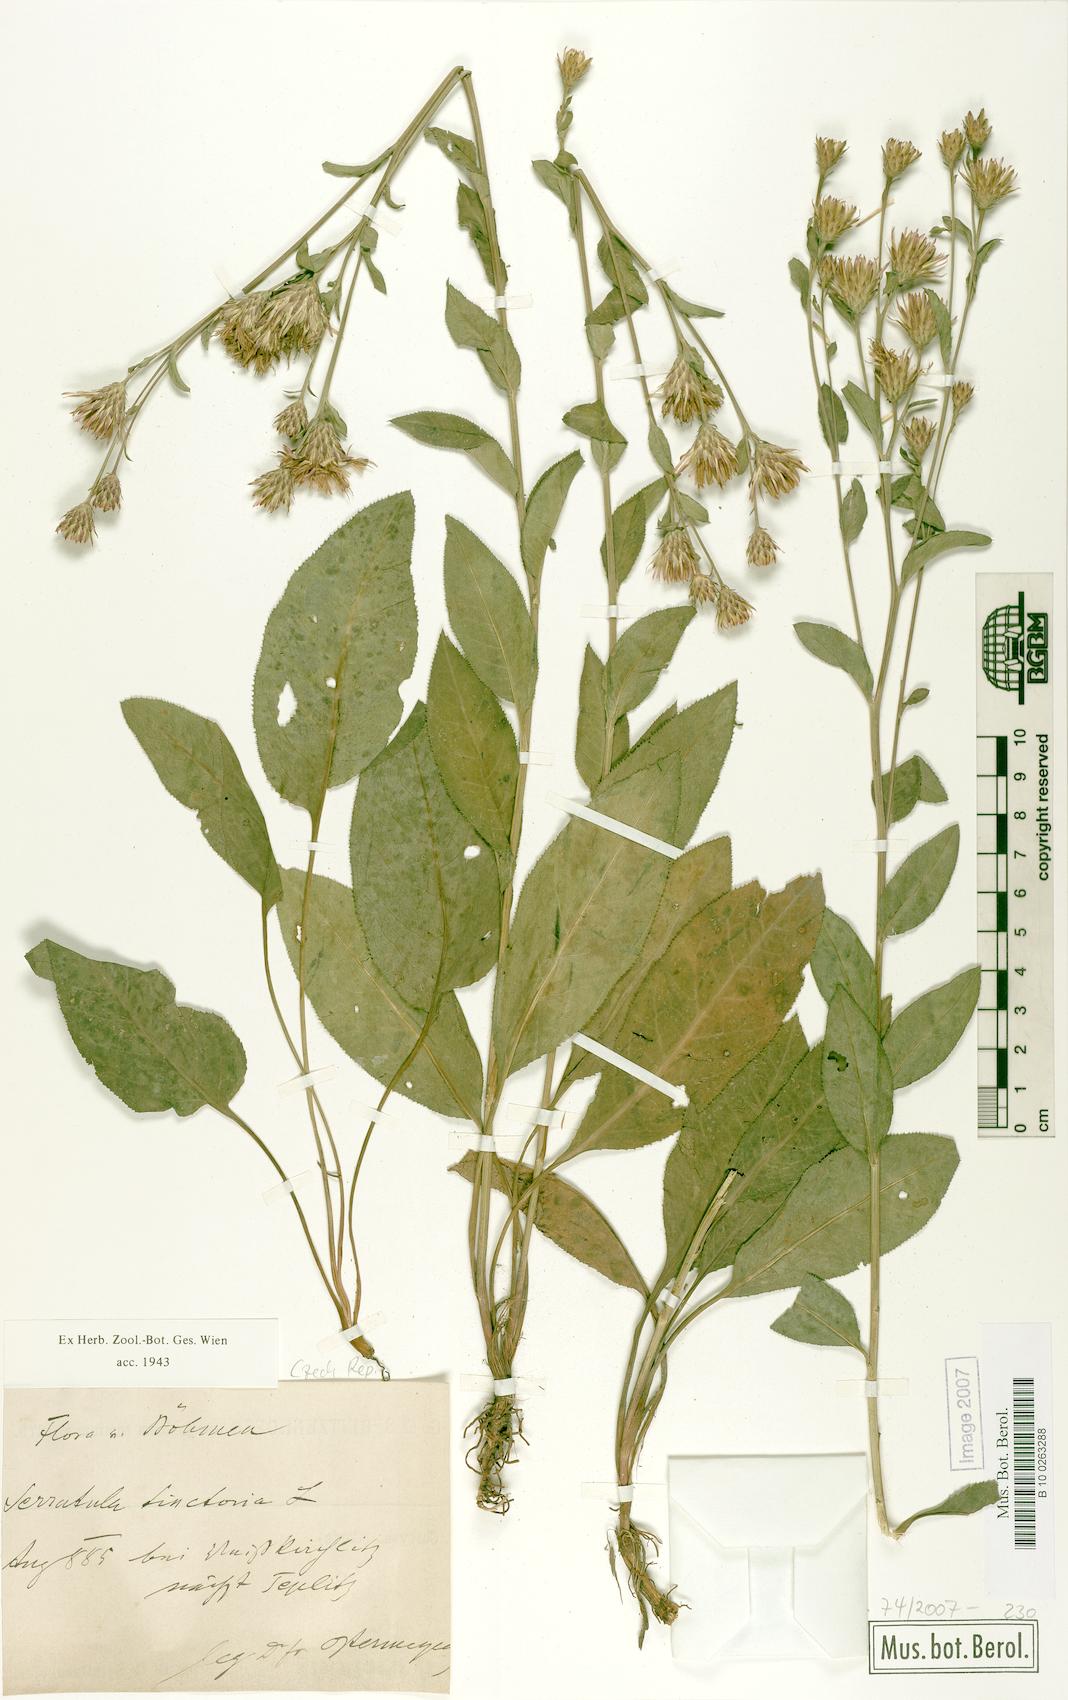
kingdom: Plantae
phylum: Tracheophyta
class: Magnoliopsida
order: Asterales
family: Asteraceae
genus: Serratula
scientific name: Serratula tinctoria
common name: Saw-wort
